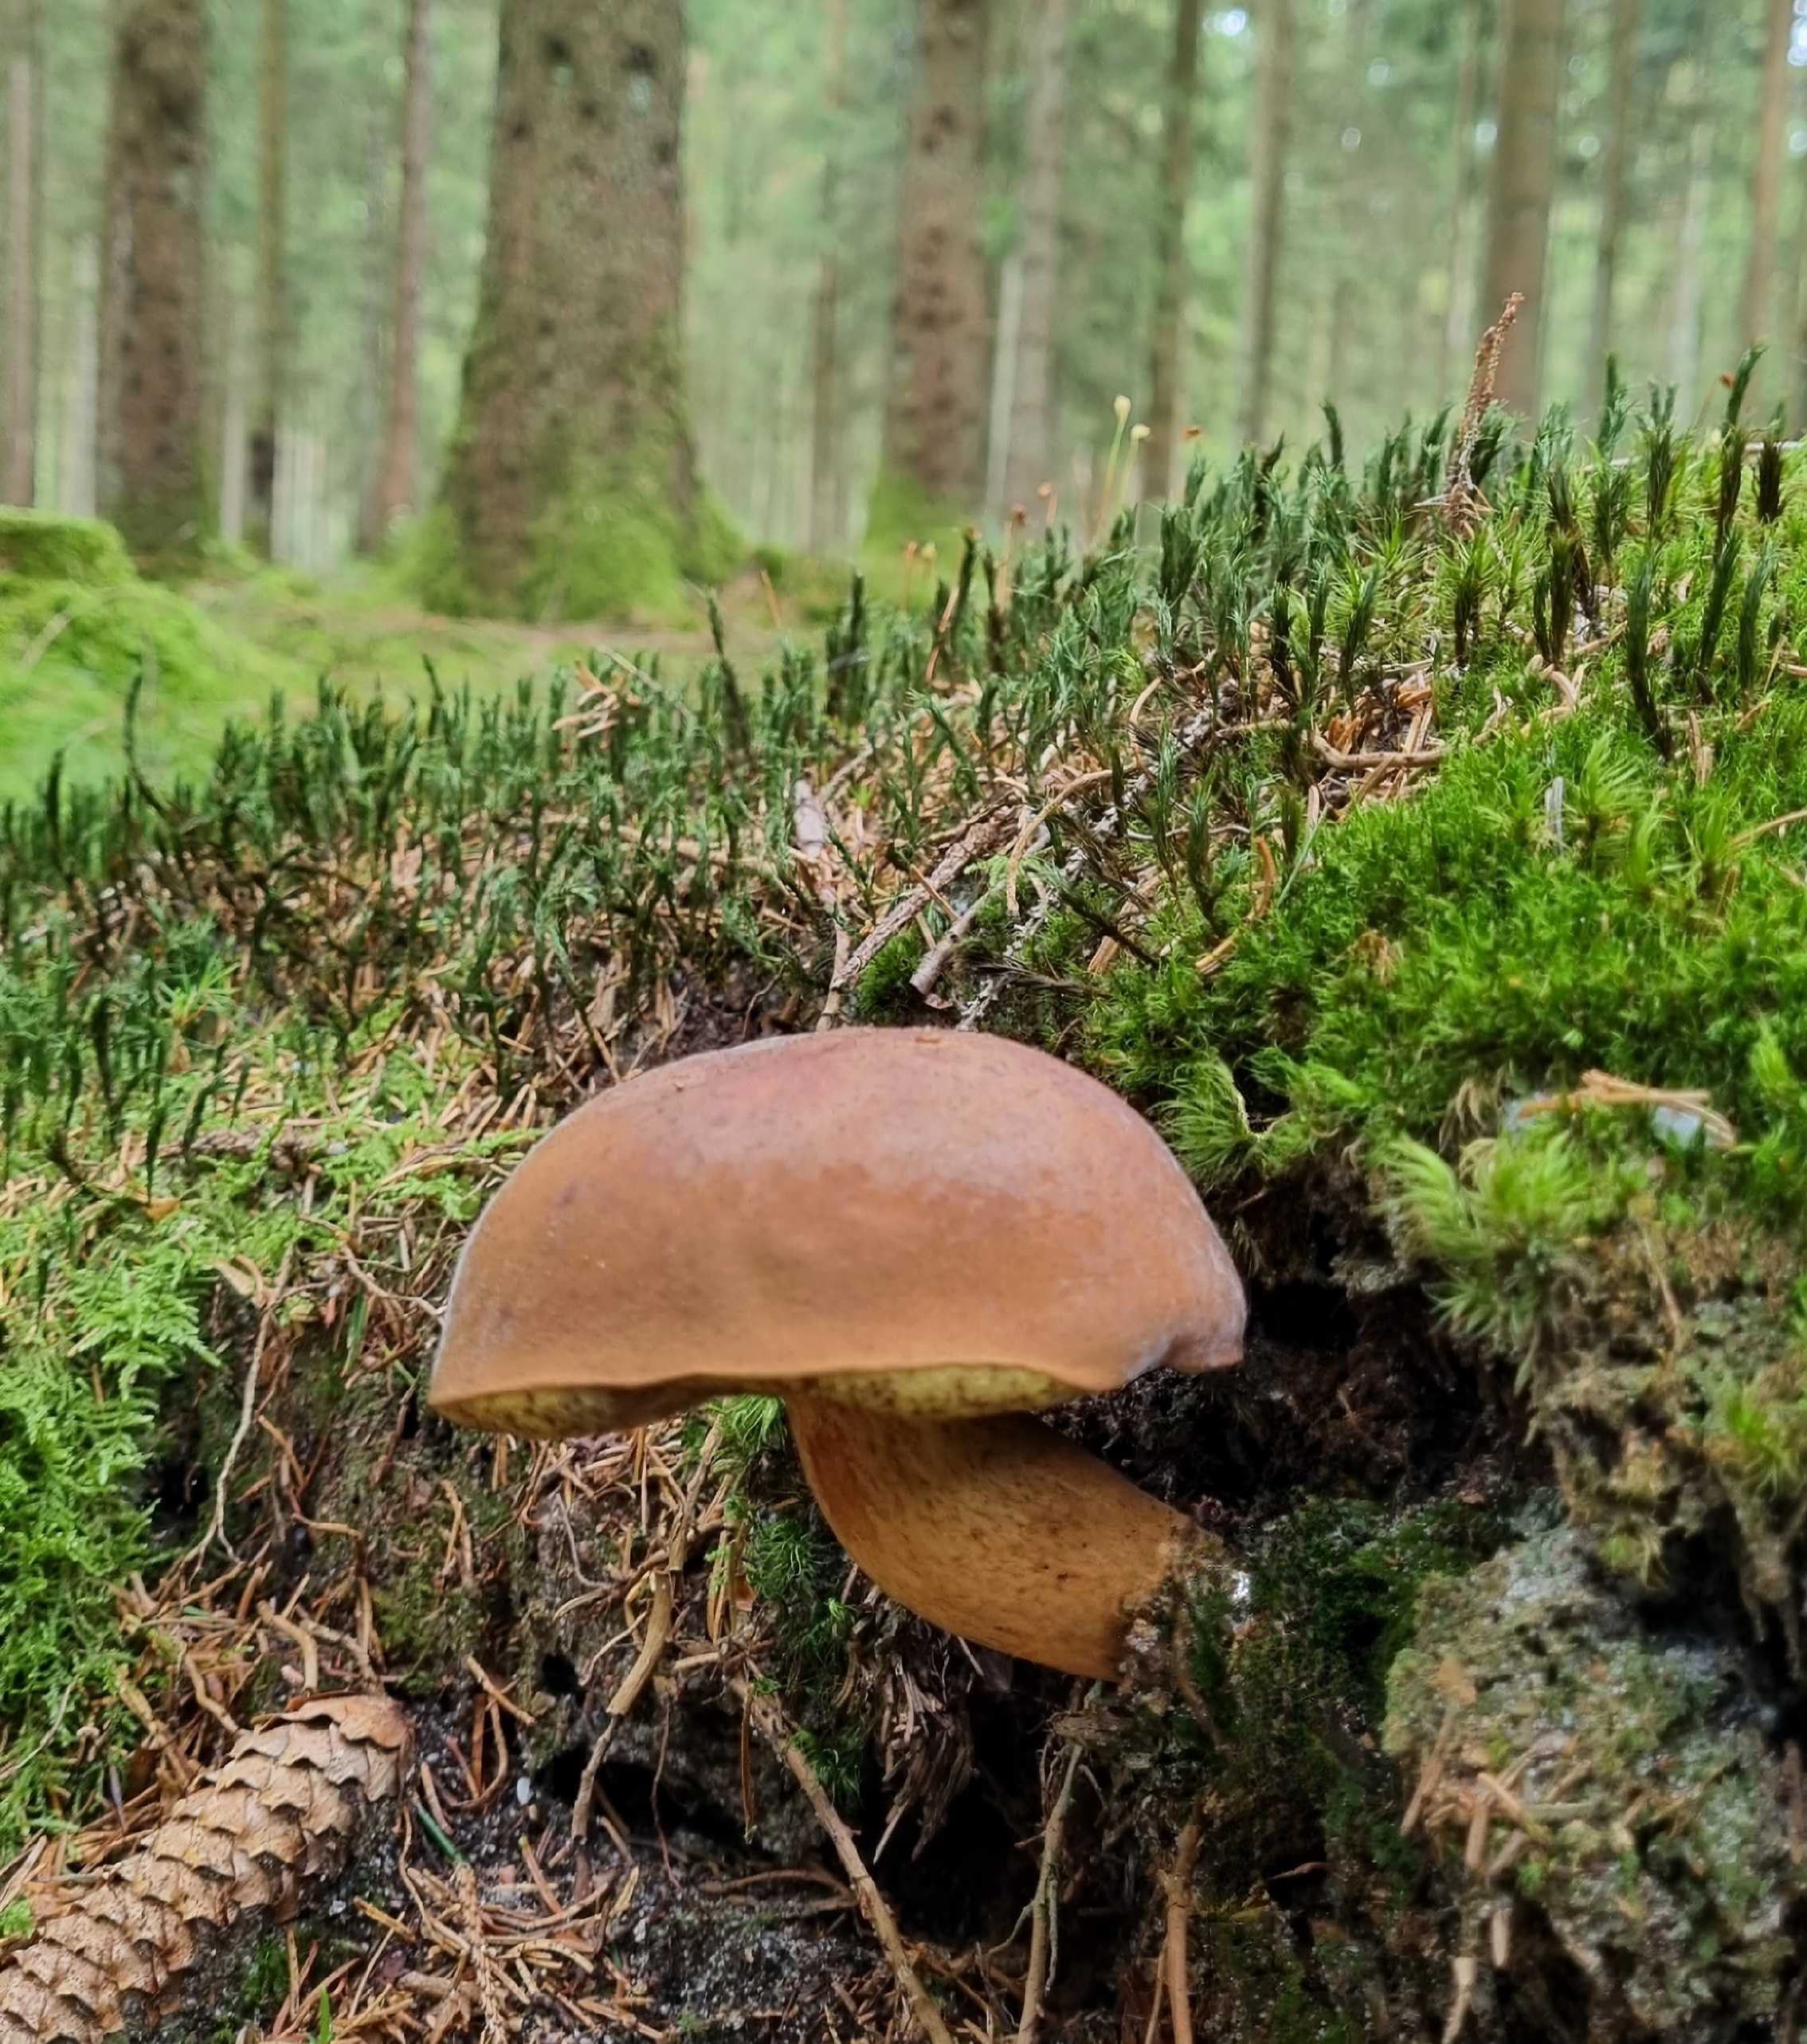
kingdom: Fungi
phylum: Basidiomycota
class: Agaricomycetes
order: Boletales
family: Boletaceae
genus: Imleria
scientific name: Imleria badia
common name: brunstokket rørhat
